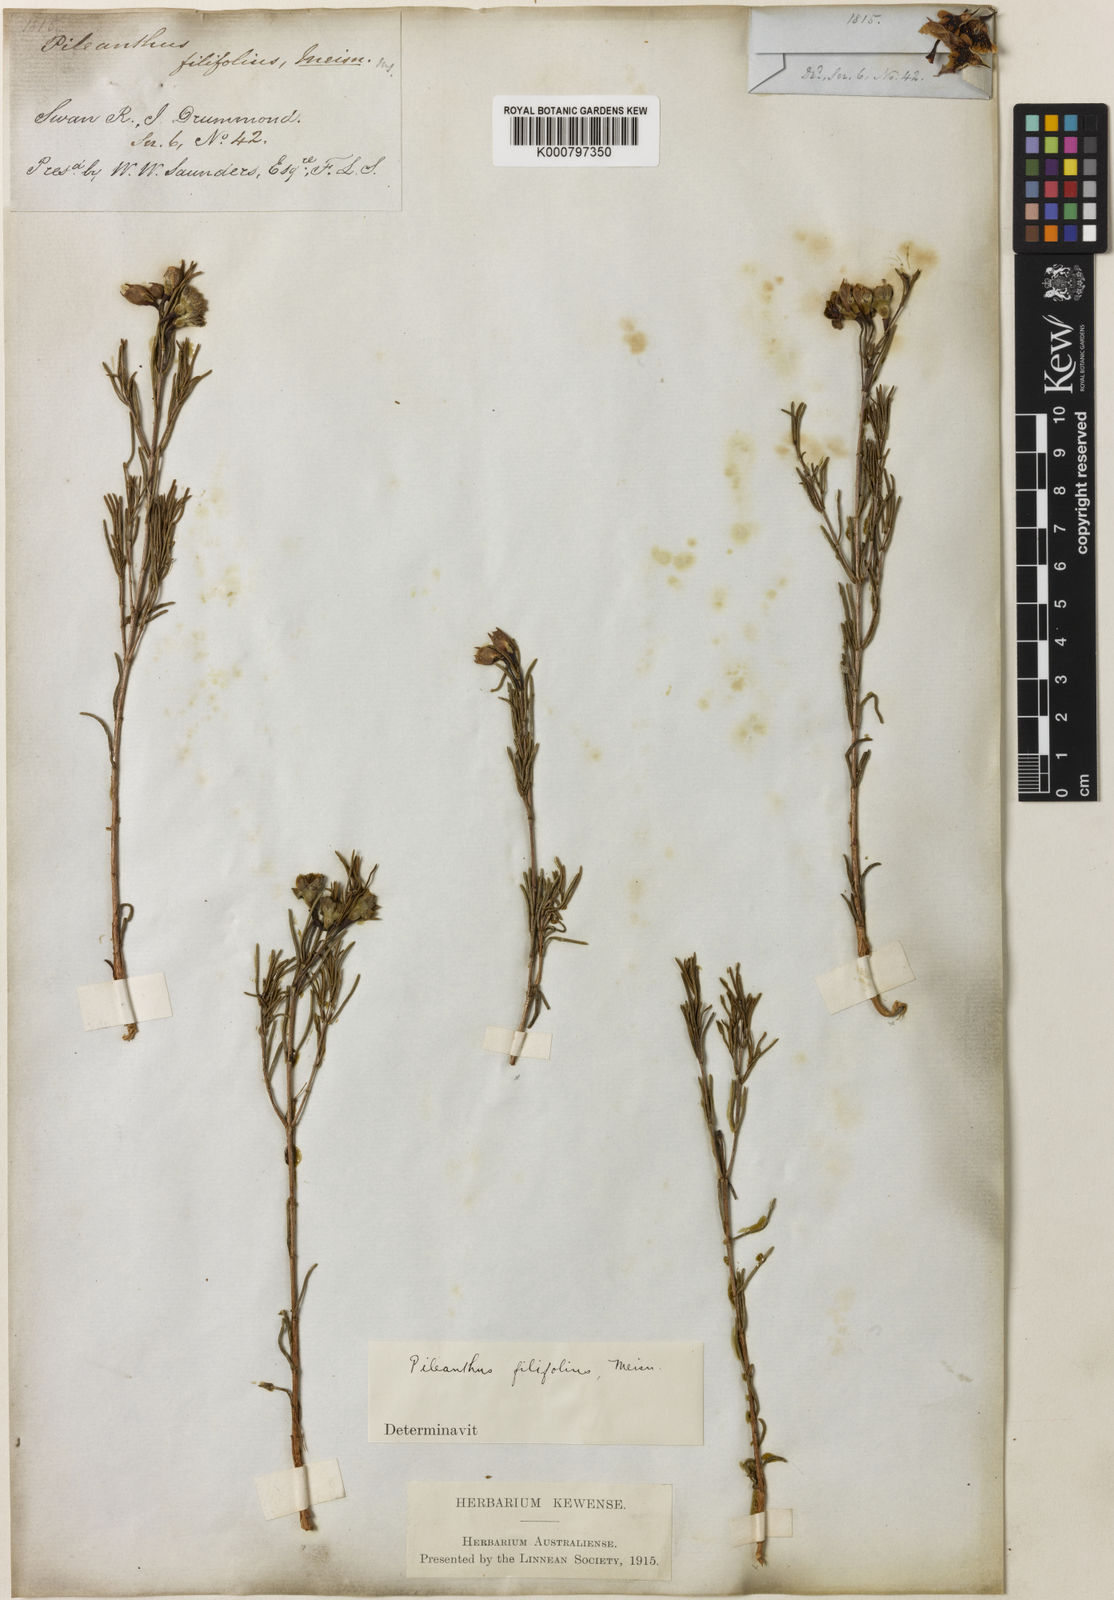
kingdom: Plantae
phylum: Tracheophyta
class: Magnoliopsida
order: Myrtales
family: Myrtaceae
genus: Pileanthus
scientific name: Pileanthus filifolius
